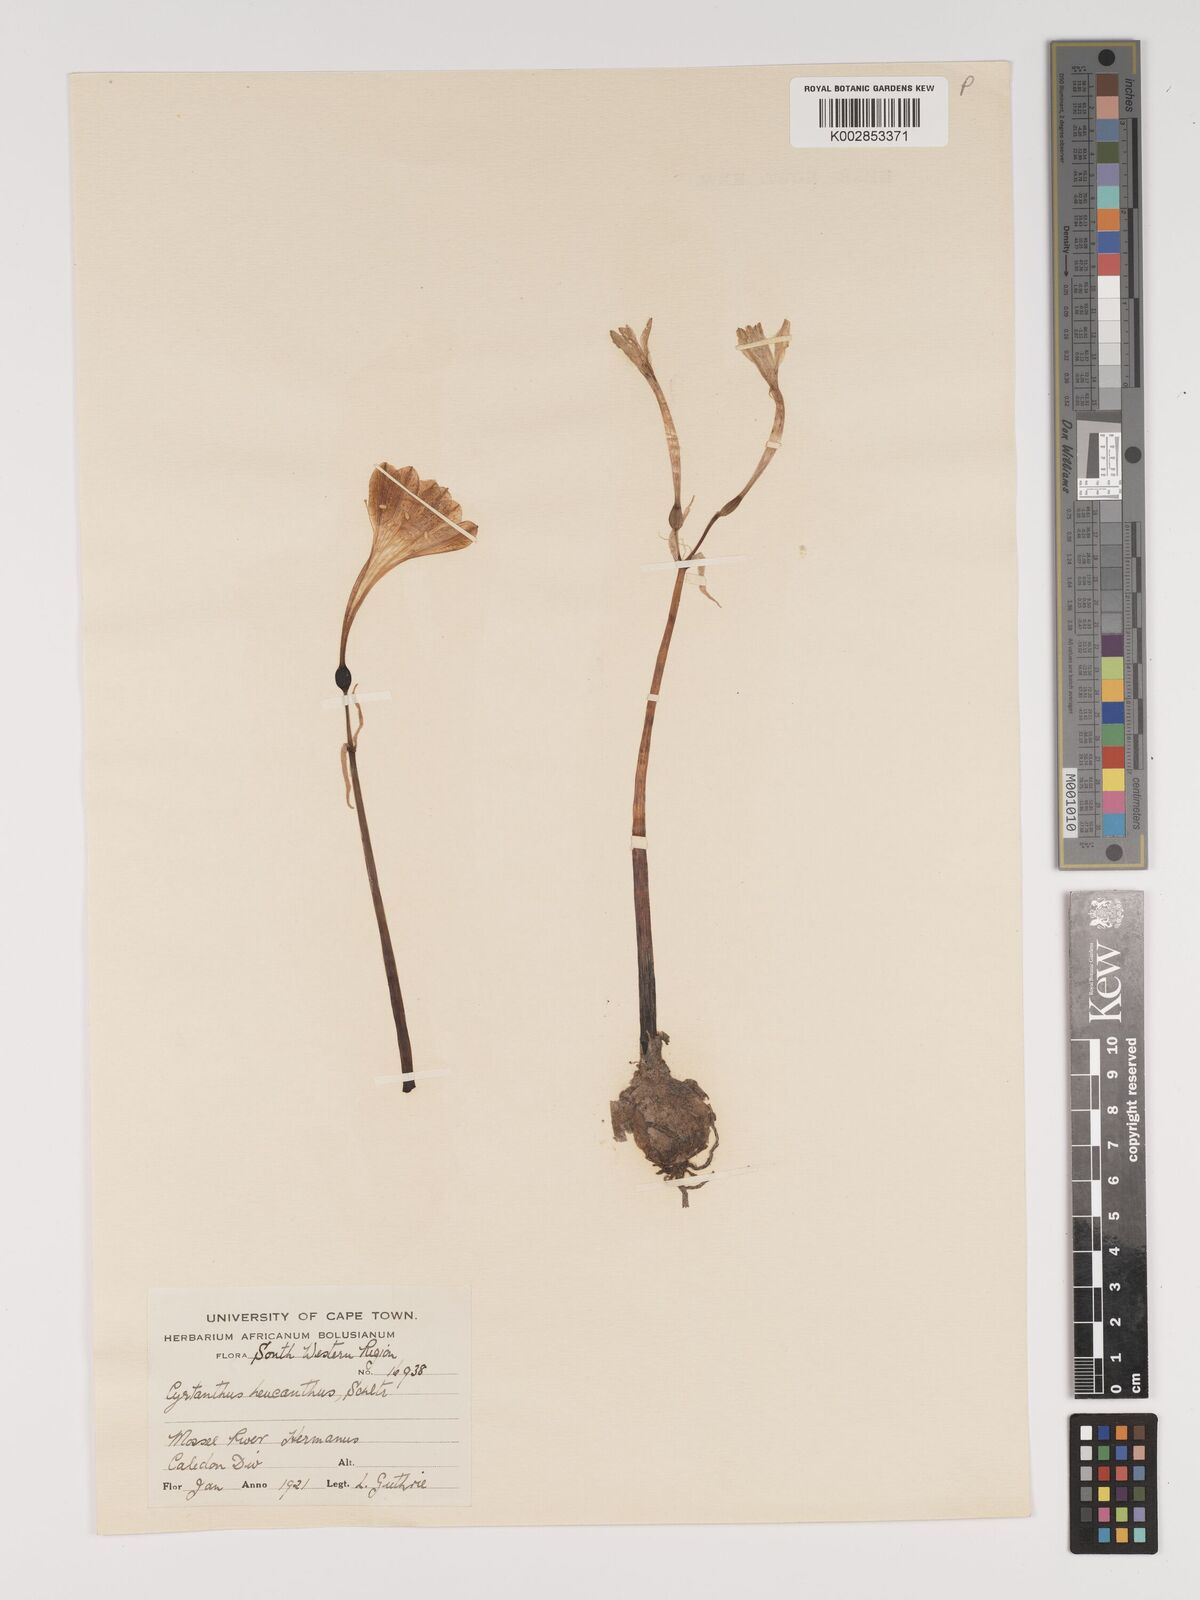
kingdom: Plantae
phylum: Tracheophyta
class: Liliopsida
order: Asparagales
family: Amaryllidaceae
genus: Cyrtanthus
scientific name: Cyrtanthus leucanthus
